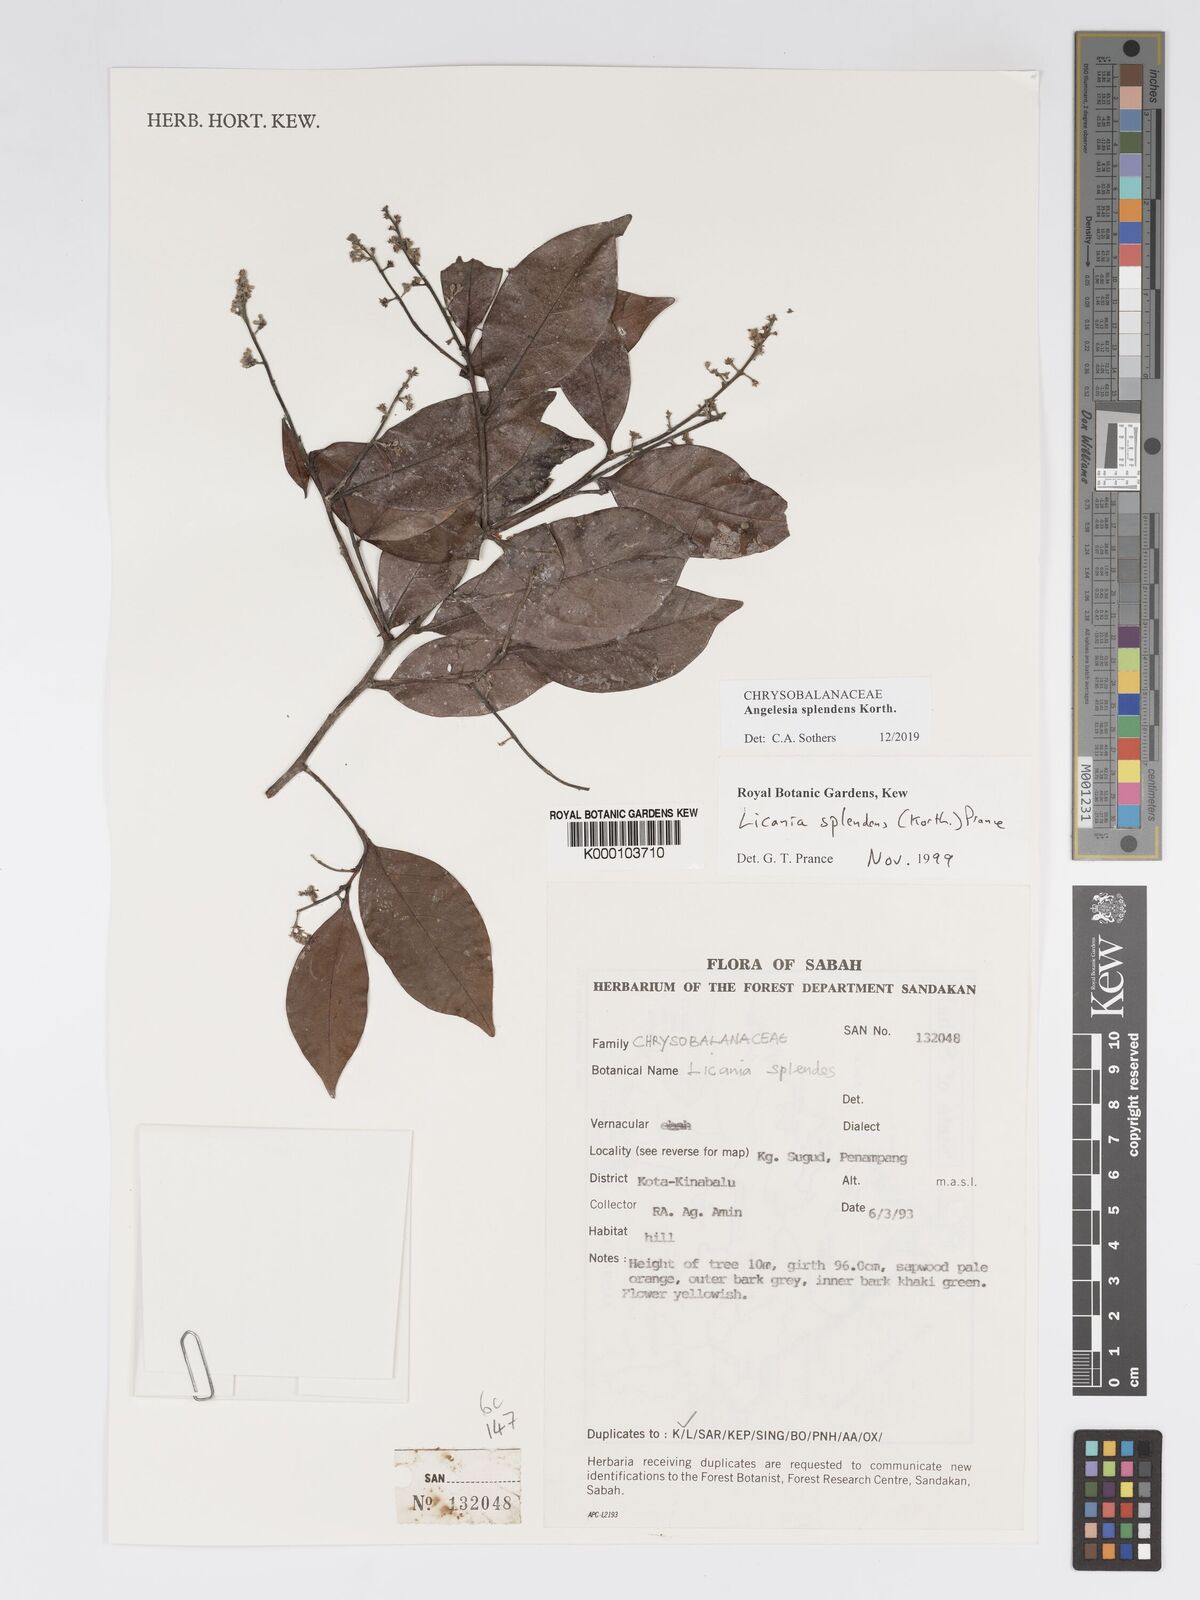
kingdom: Plantae
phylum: Tracheophyta
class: Magnoliopsida
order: Malpighiales
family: Chrysobalanaceae
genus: Angelesia
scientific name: Angelesia splendens
